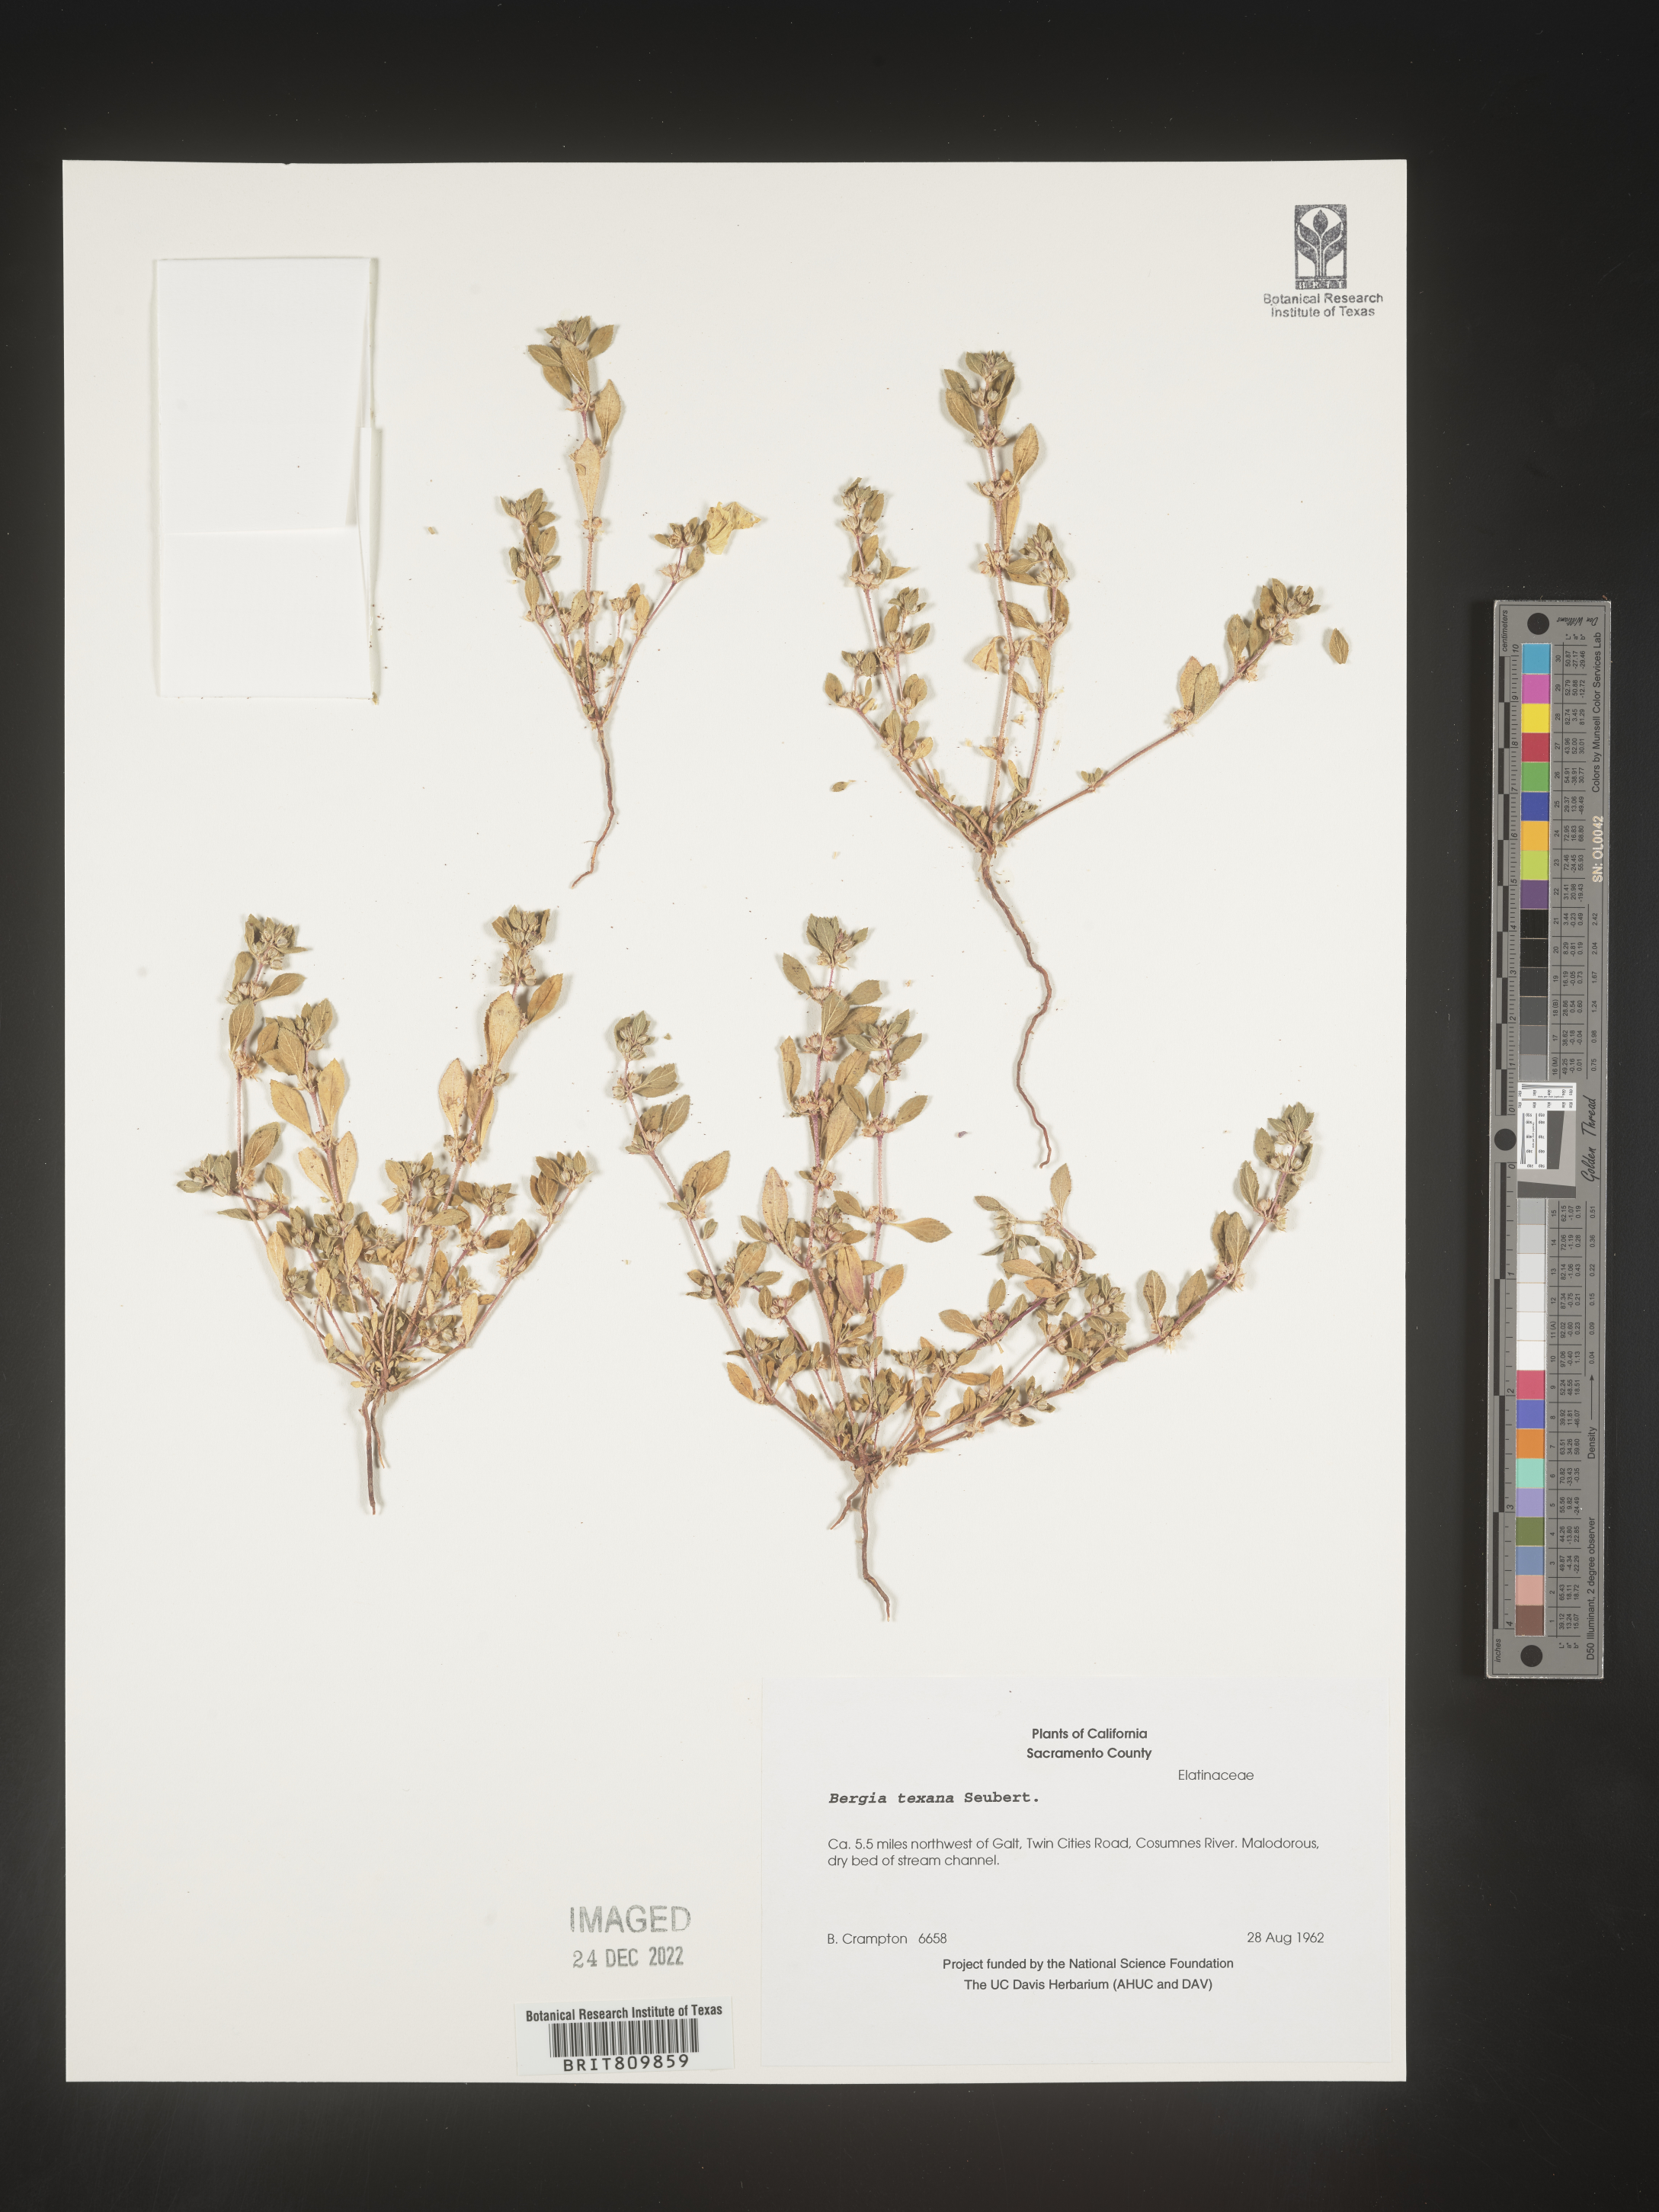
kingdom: Plantae
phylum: Tracheophyta
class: Magnoliopsida
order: Malpighiales
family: Elatinaceae
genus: Bergia
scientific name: Bergia
